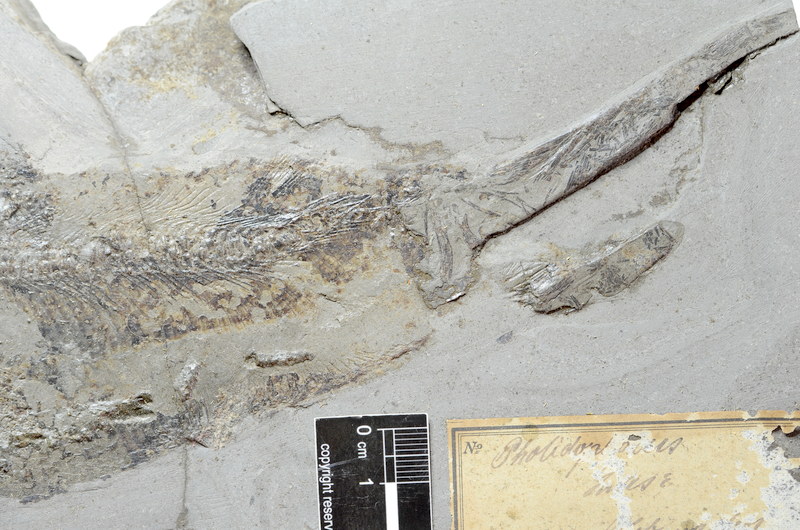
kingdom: Animalia
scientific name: Animalia
